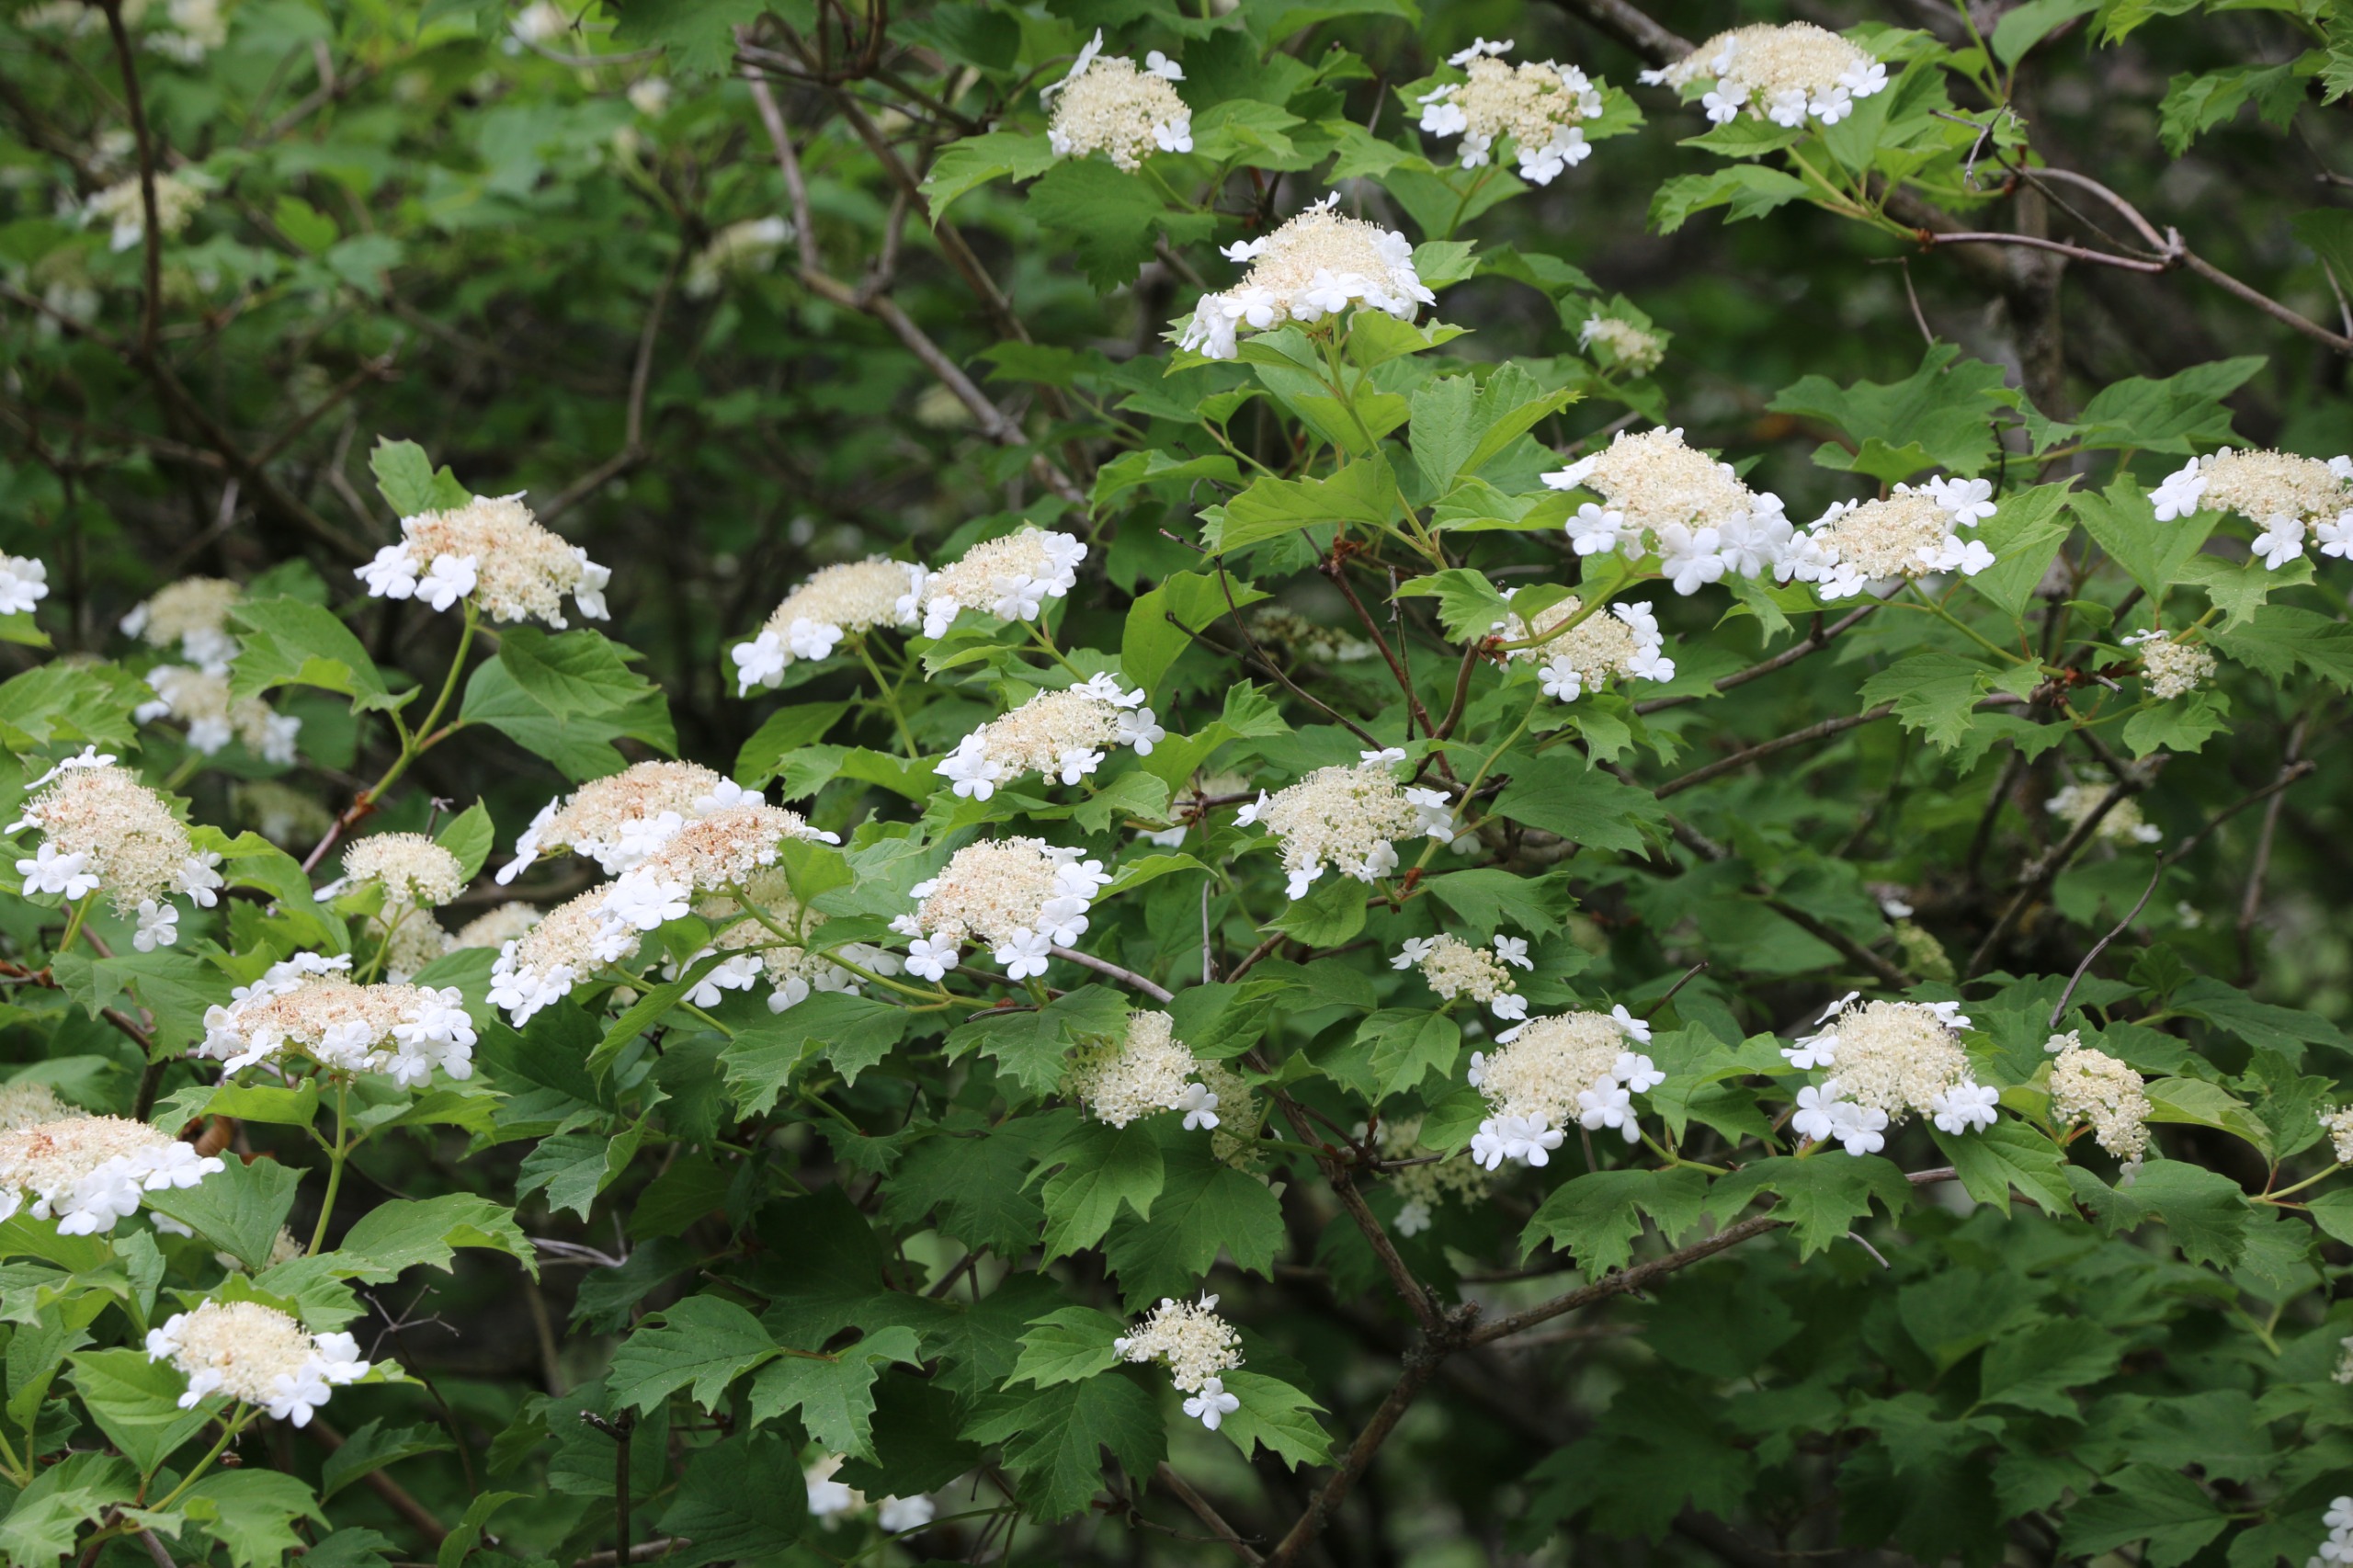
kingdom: Plantae
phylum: Tracheophyta
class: Magnoliopsida
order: Dipsacales
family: Viburnaceae
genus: Viburnum
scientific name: Viburnum opulus
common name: Kvalkved
